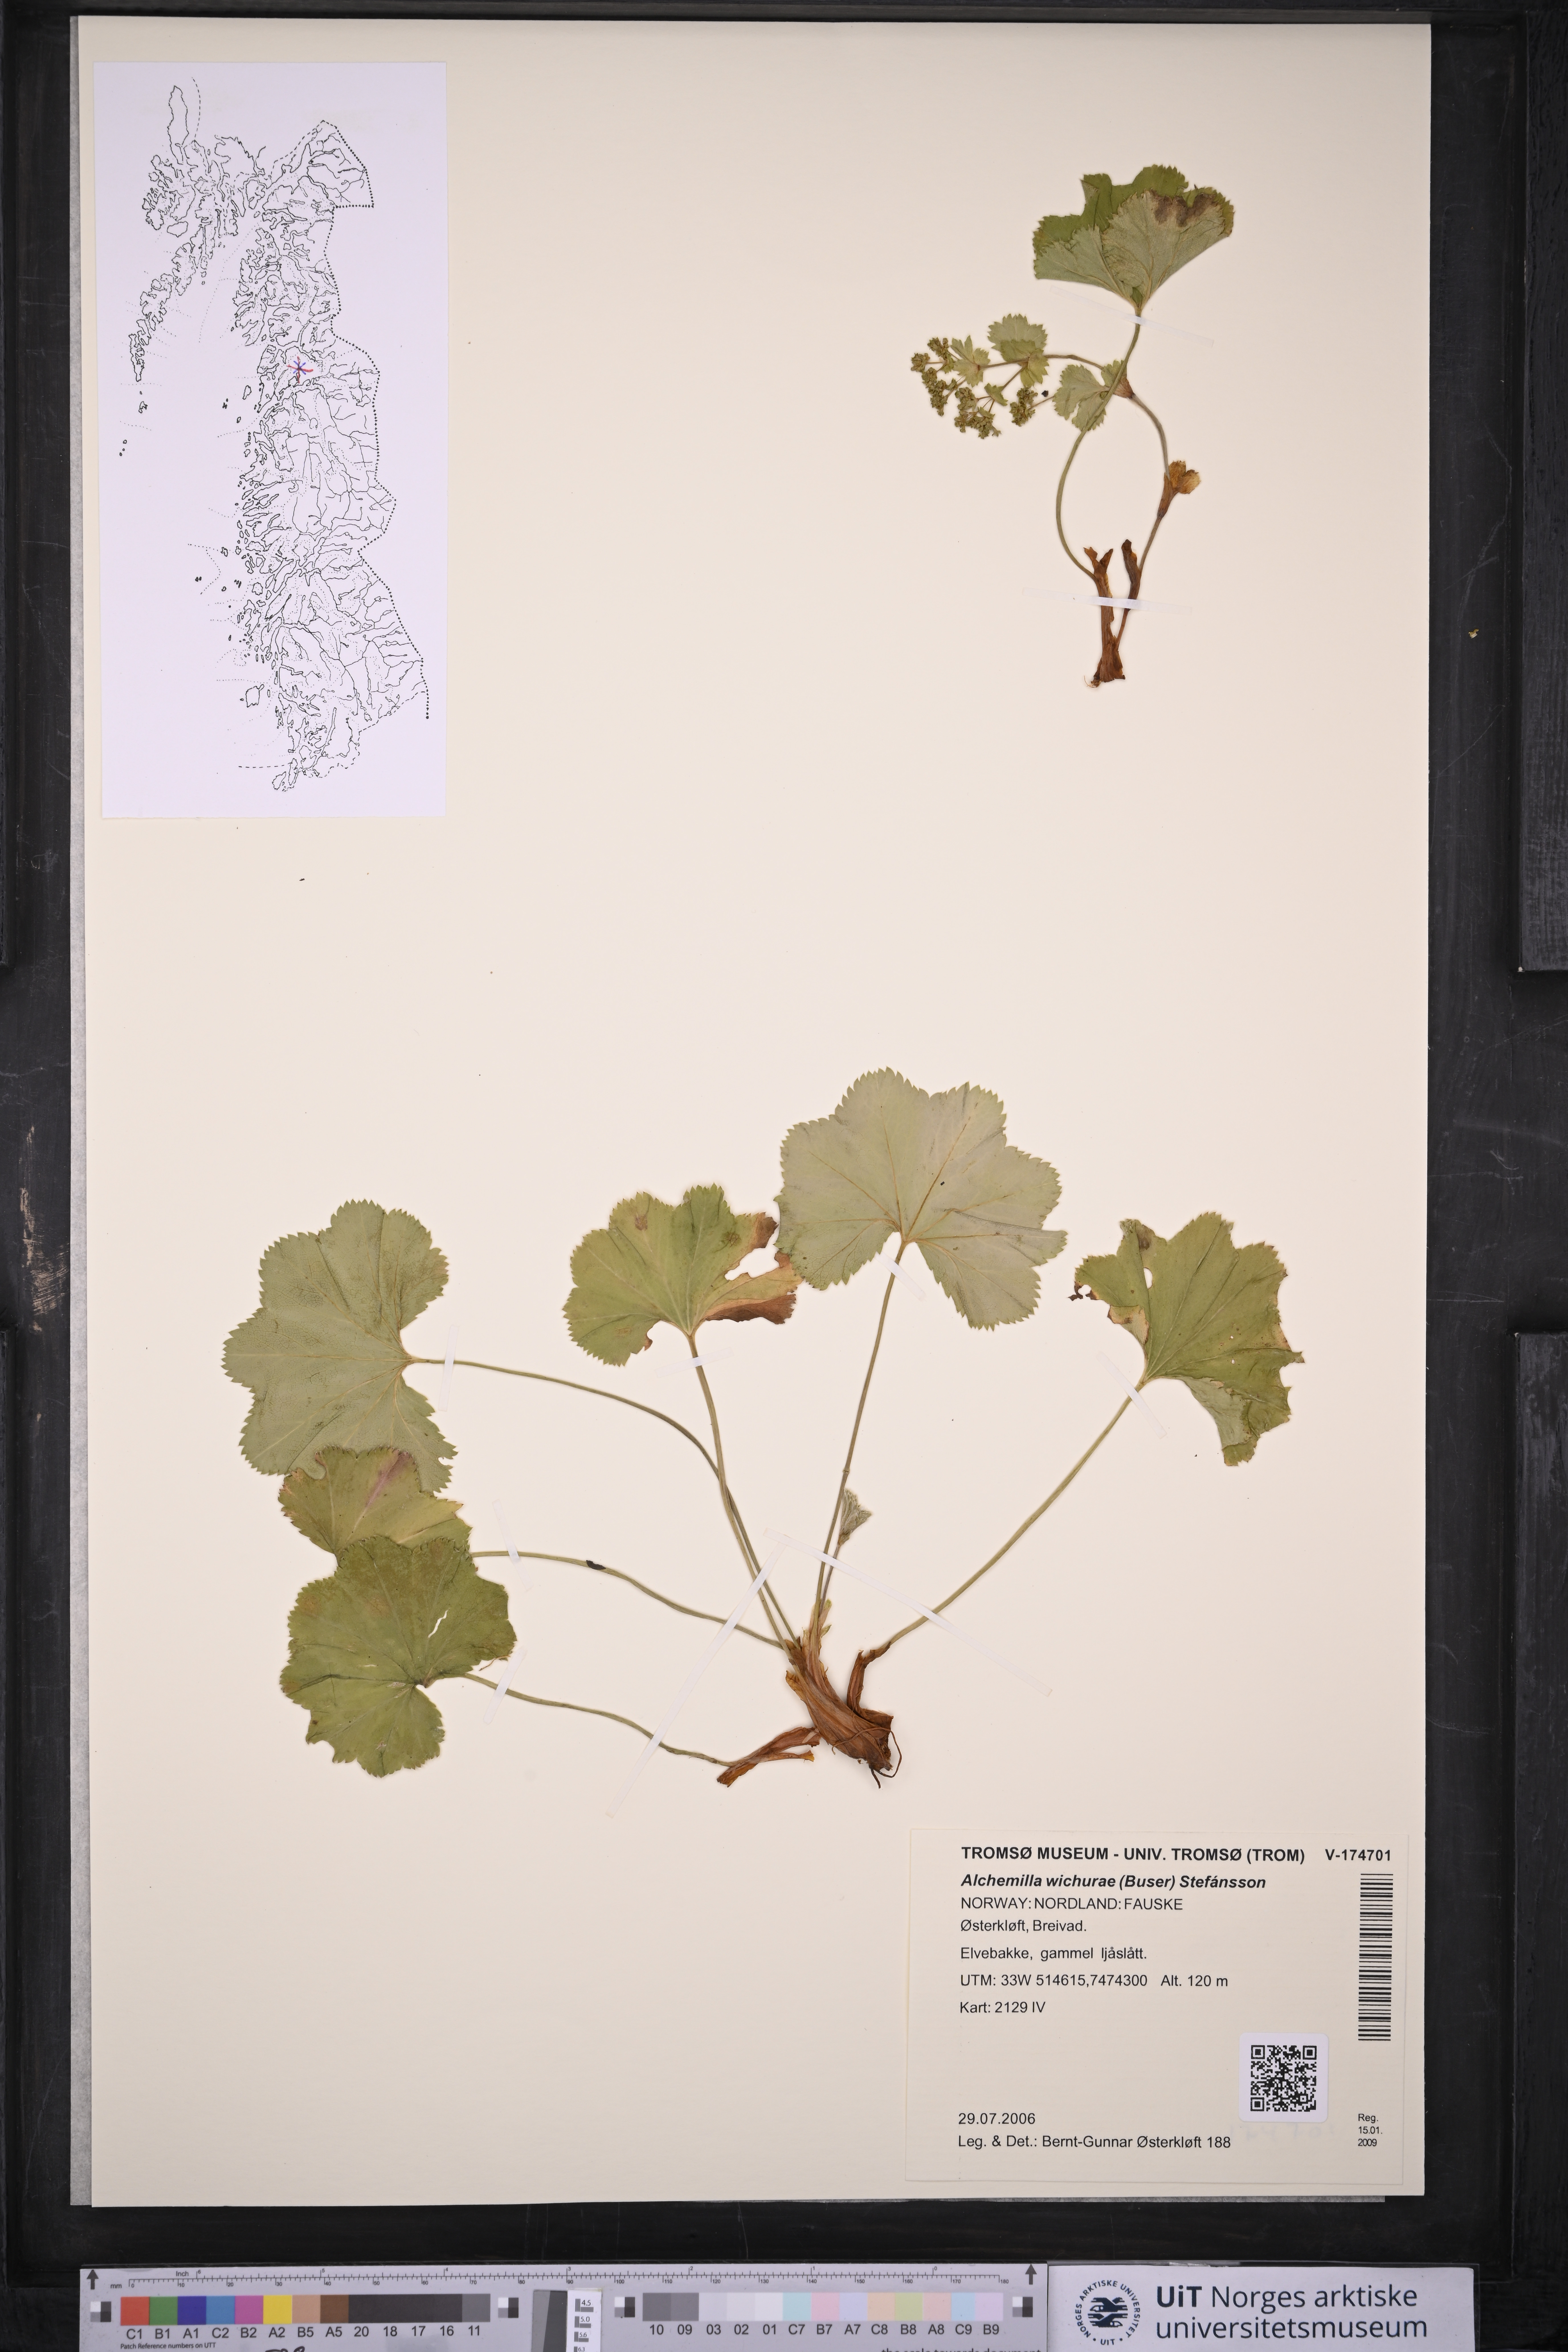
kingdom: Plantae
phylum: Tracheophyta
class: Magnoliopsida
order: Rosales
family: Rosaceae
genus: Alchemilla
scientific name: Alchemilla wichurae
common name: Rock lady's mantle
